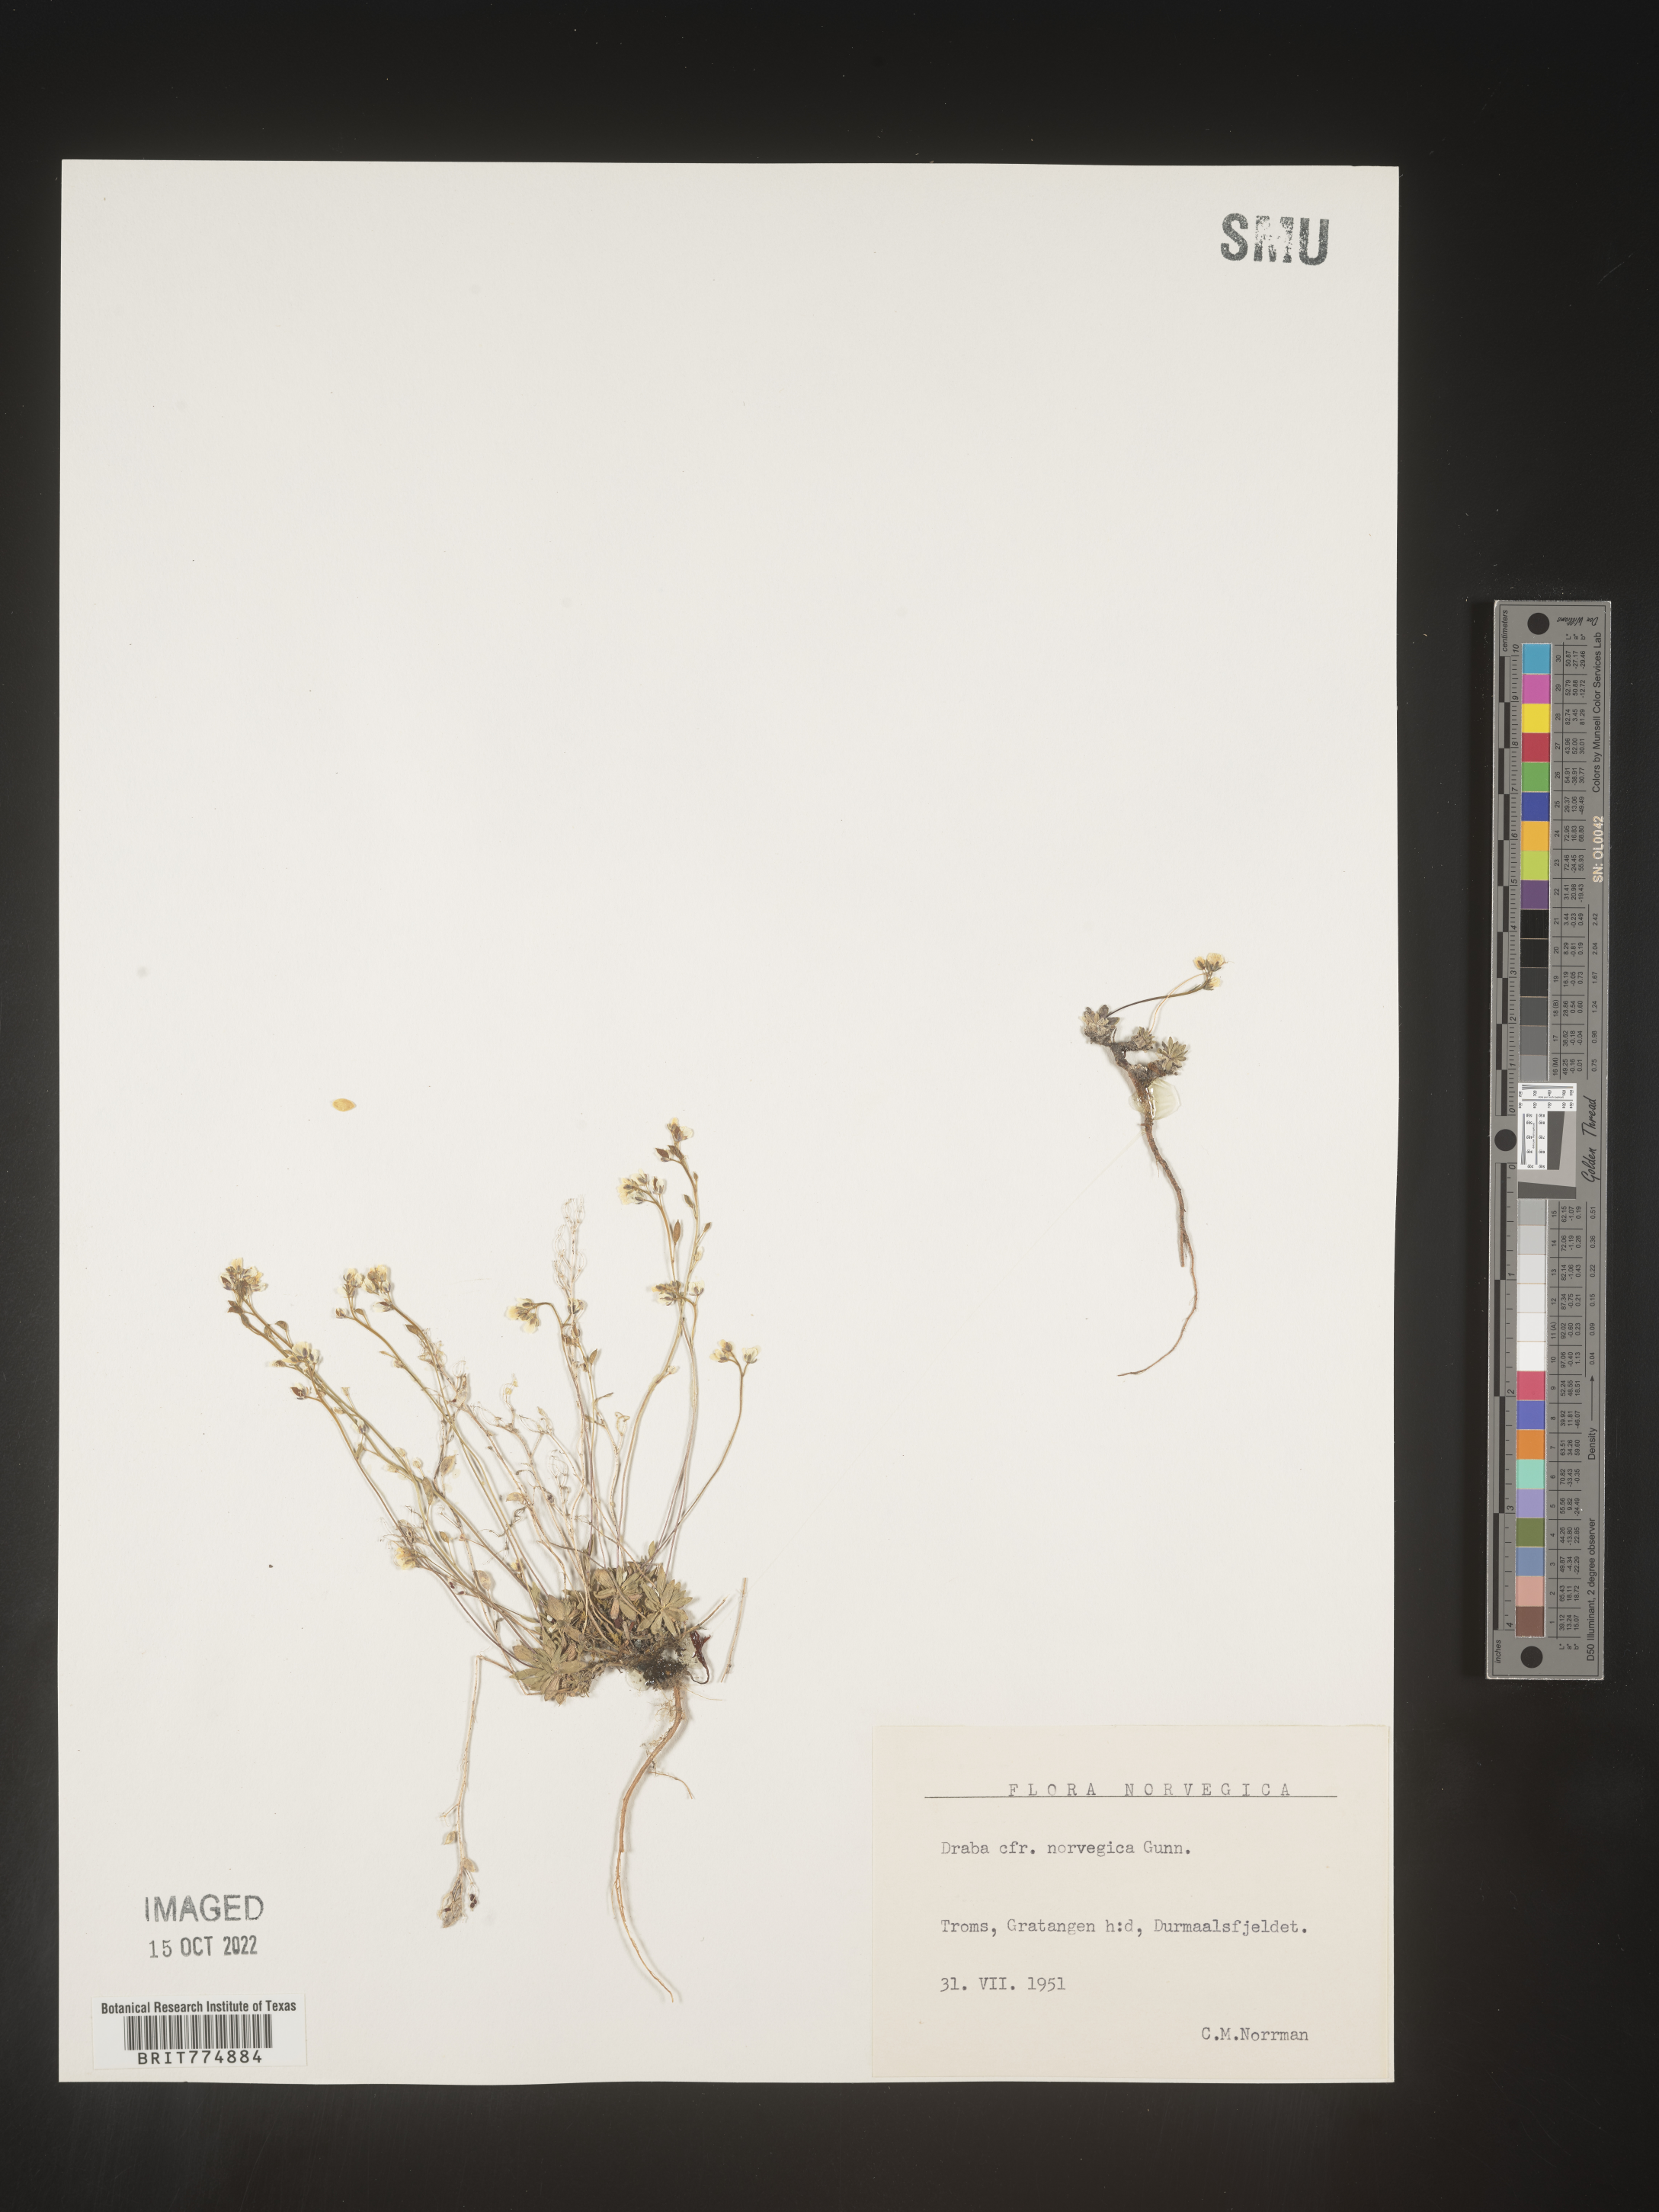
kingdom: Plantae
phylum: Tracheophyta
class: Magnoliopsida
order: Brassicales
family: Brassicaceae
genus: Draba
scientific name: Draba
